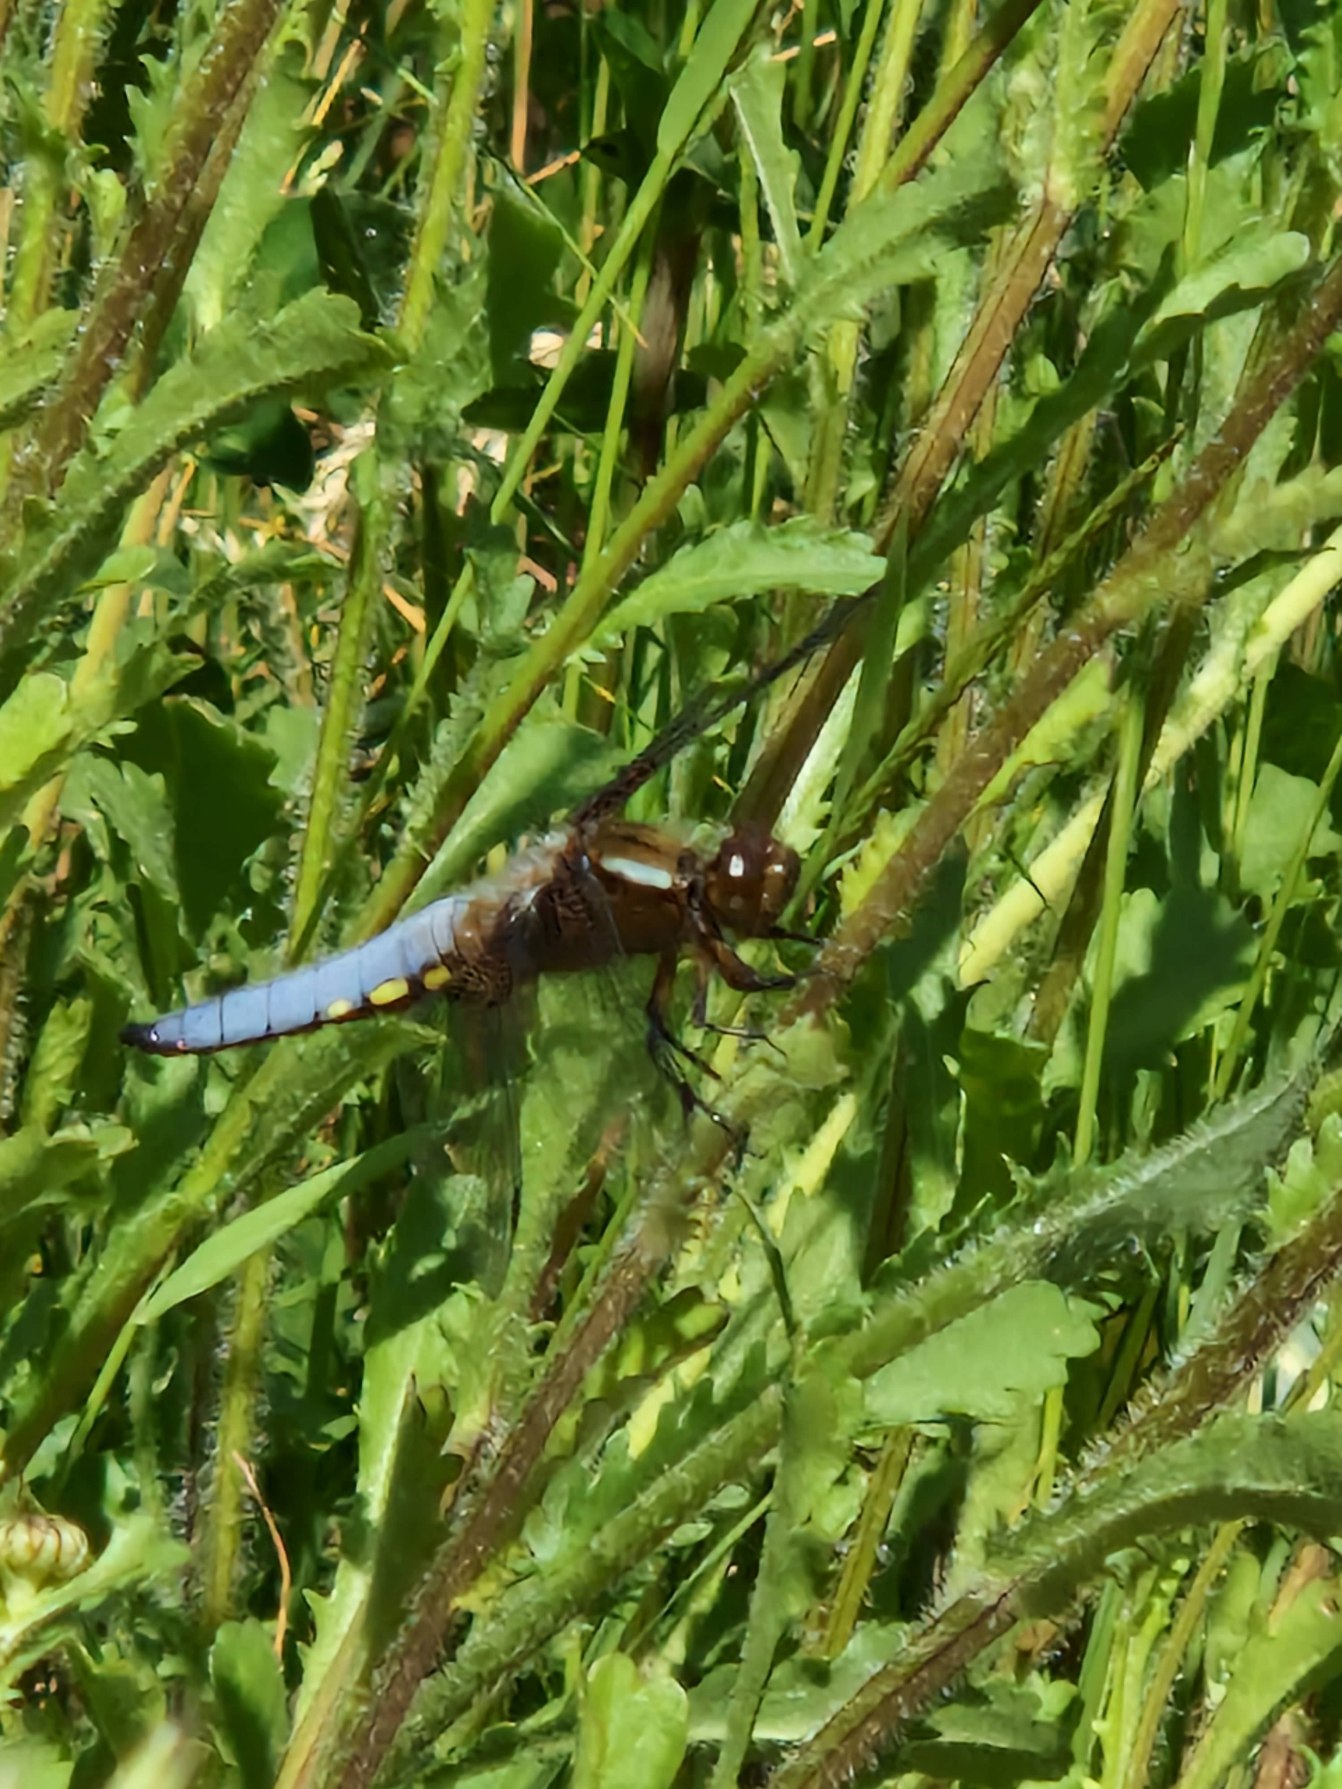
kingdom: Animalia
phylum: Arthropoda
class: Insecta
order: Odonata
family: Libellulidae
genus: Libellula
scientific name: Libellula depressa
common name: Blå libel
